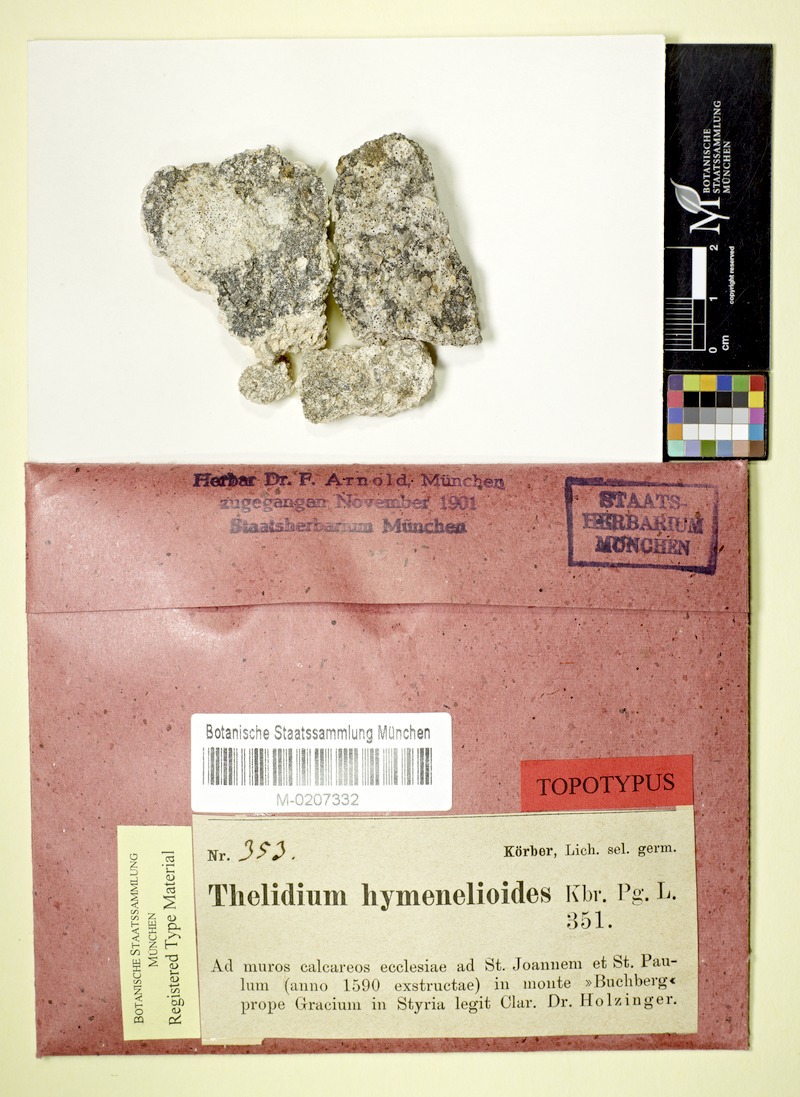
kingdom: Fungi
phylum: Ascomycota
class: Eurotiomycetes
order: Verrucariales
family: Verrucariaceae
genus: Thelidium
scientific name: Thelidium decipiens
